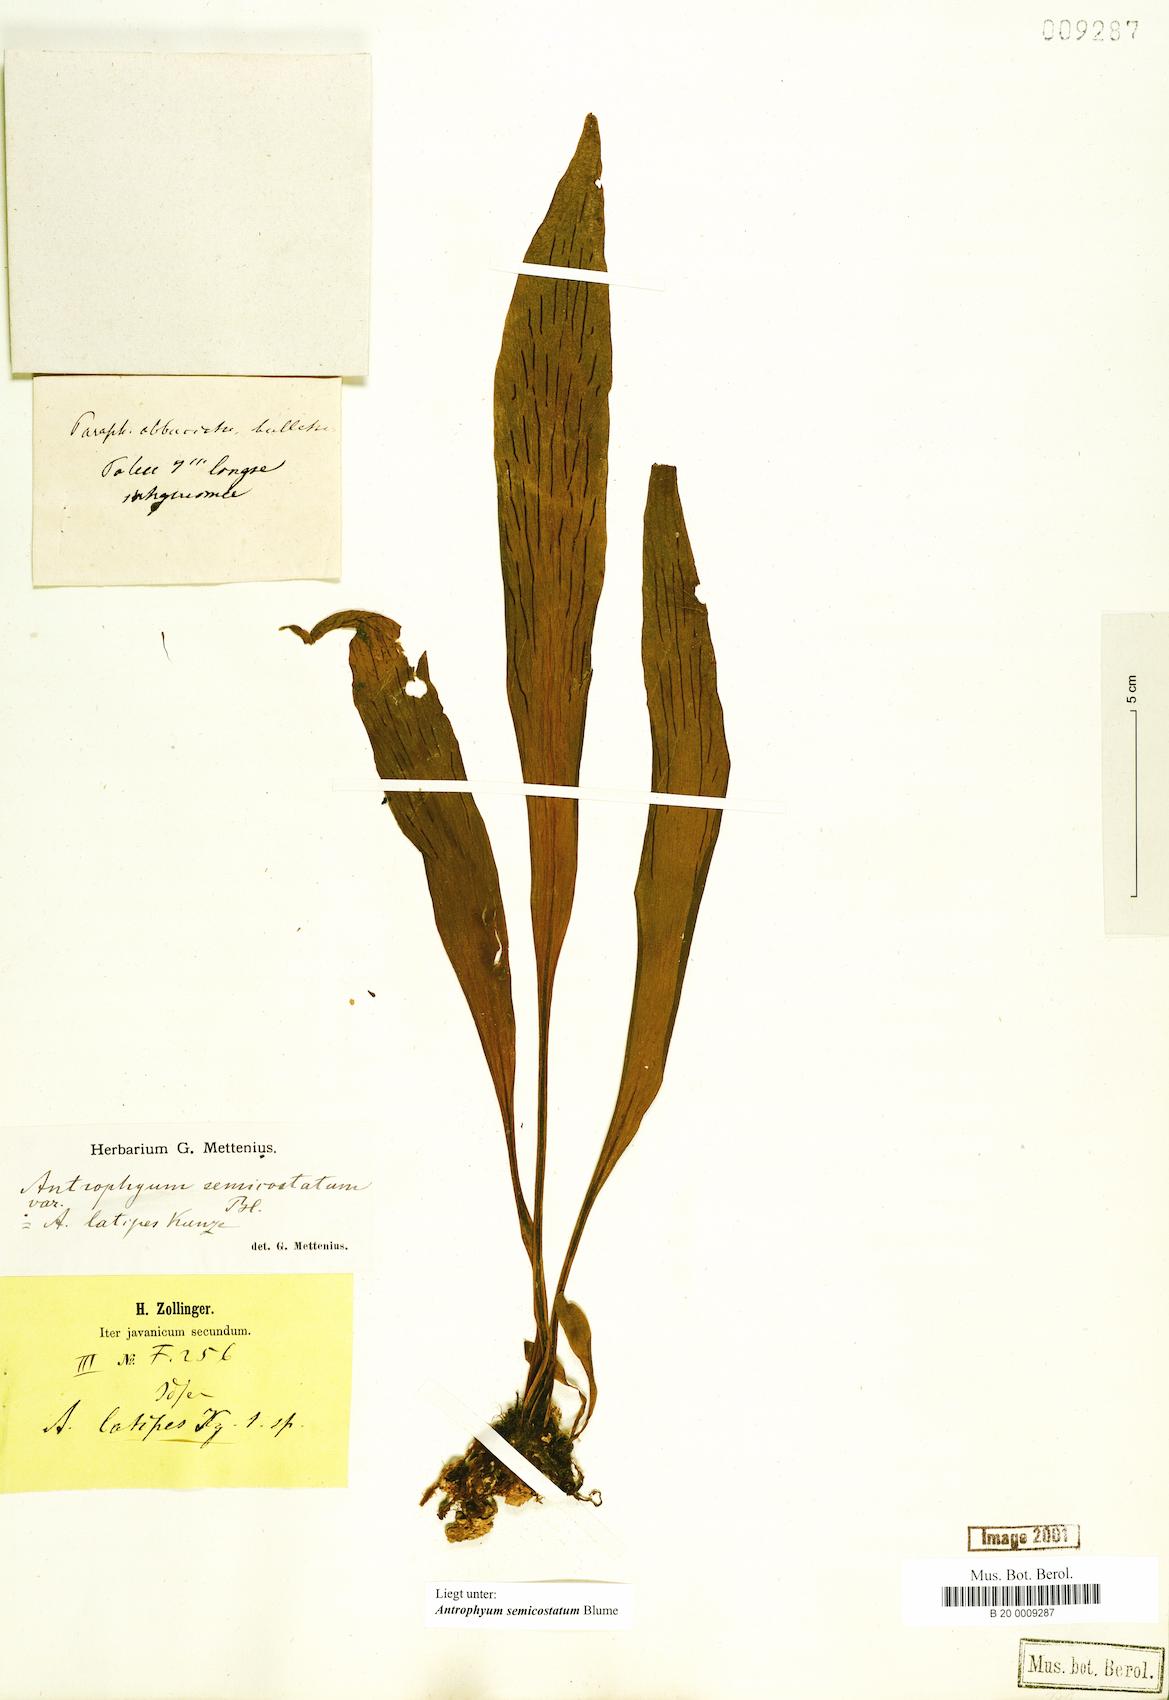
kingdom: Plantae
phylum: Tracheophyta
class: Polypodiopsida
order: Polypodiales
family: Pteridaceae
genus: Antrophyum
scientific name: Antrophyum semicostatum
